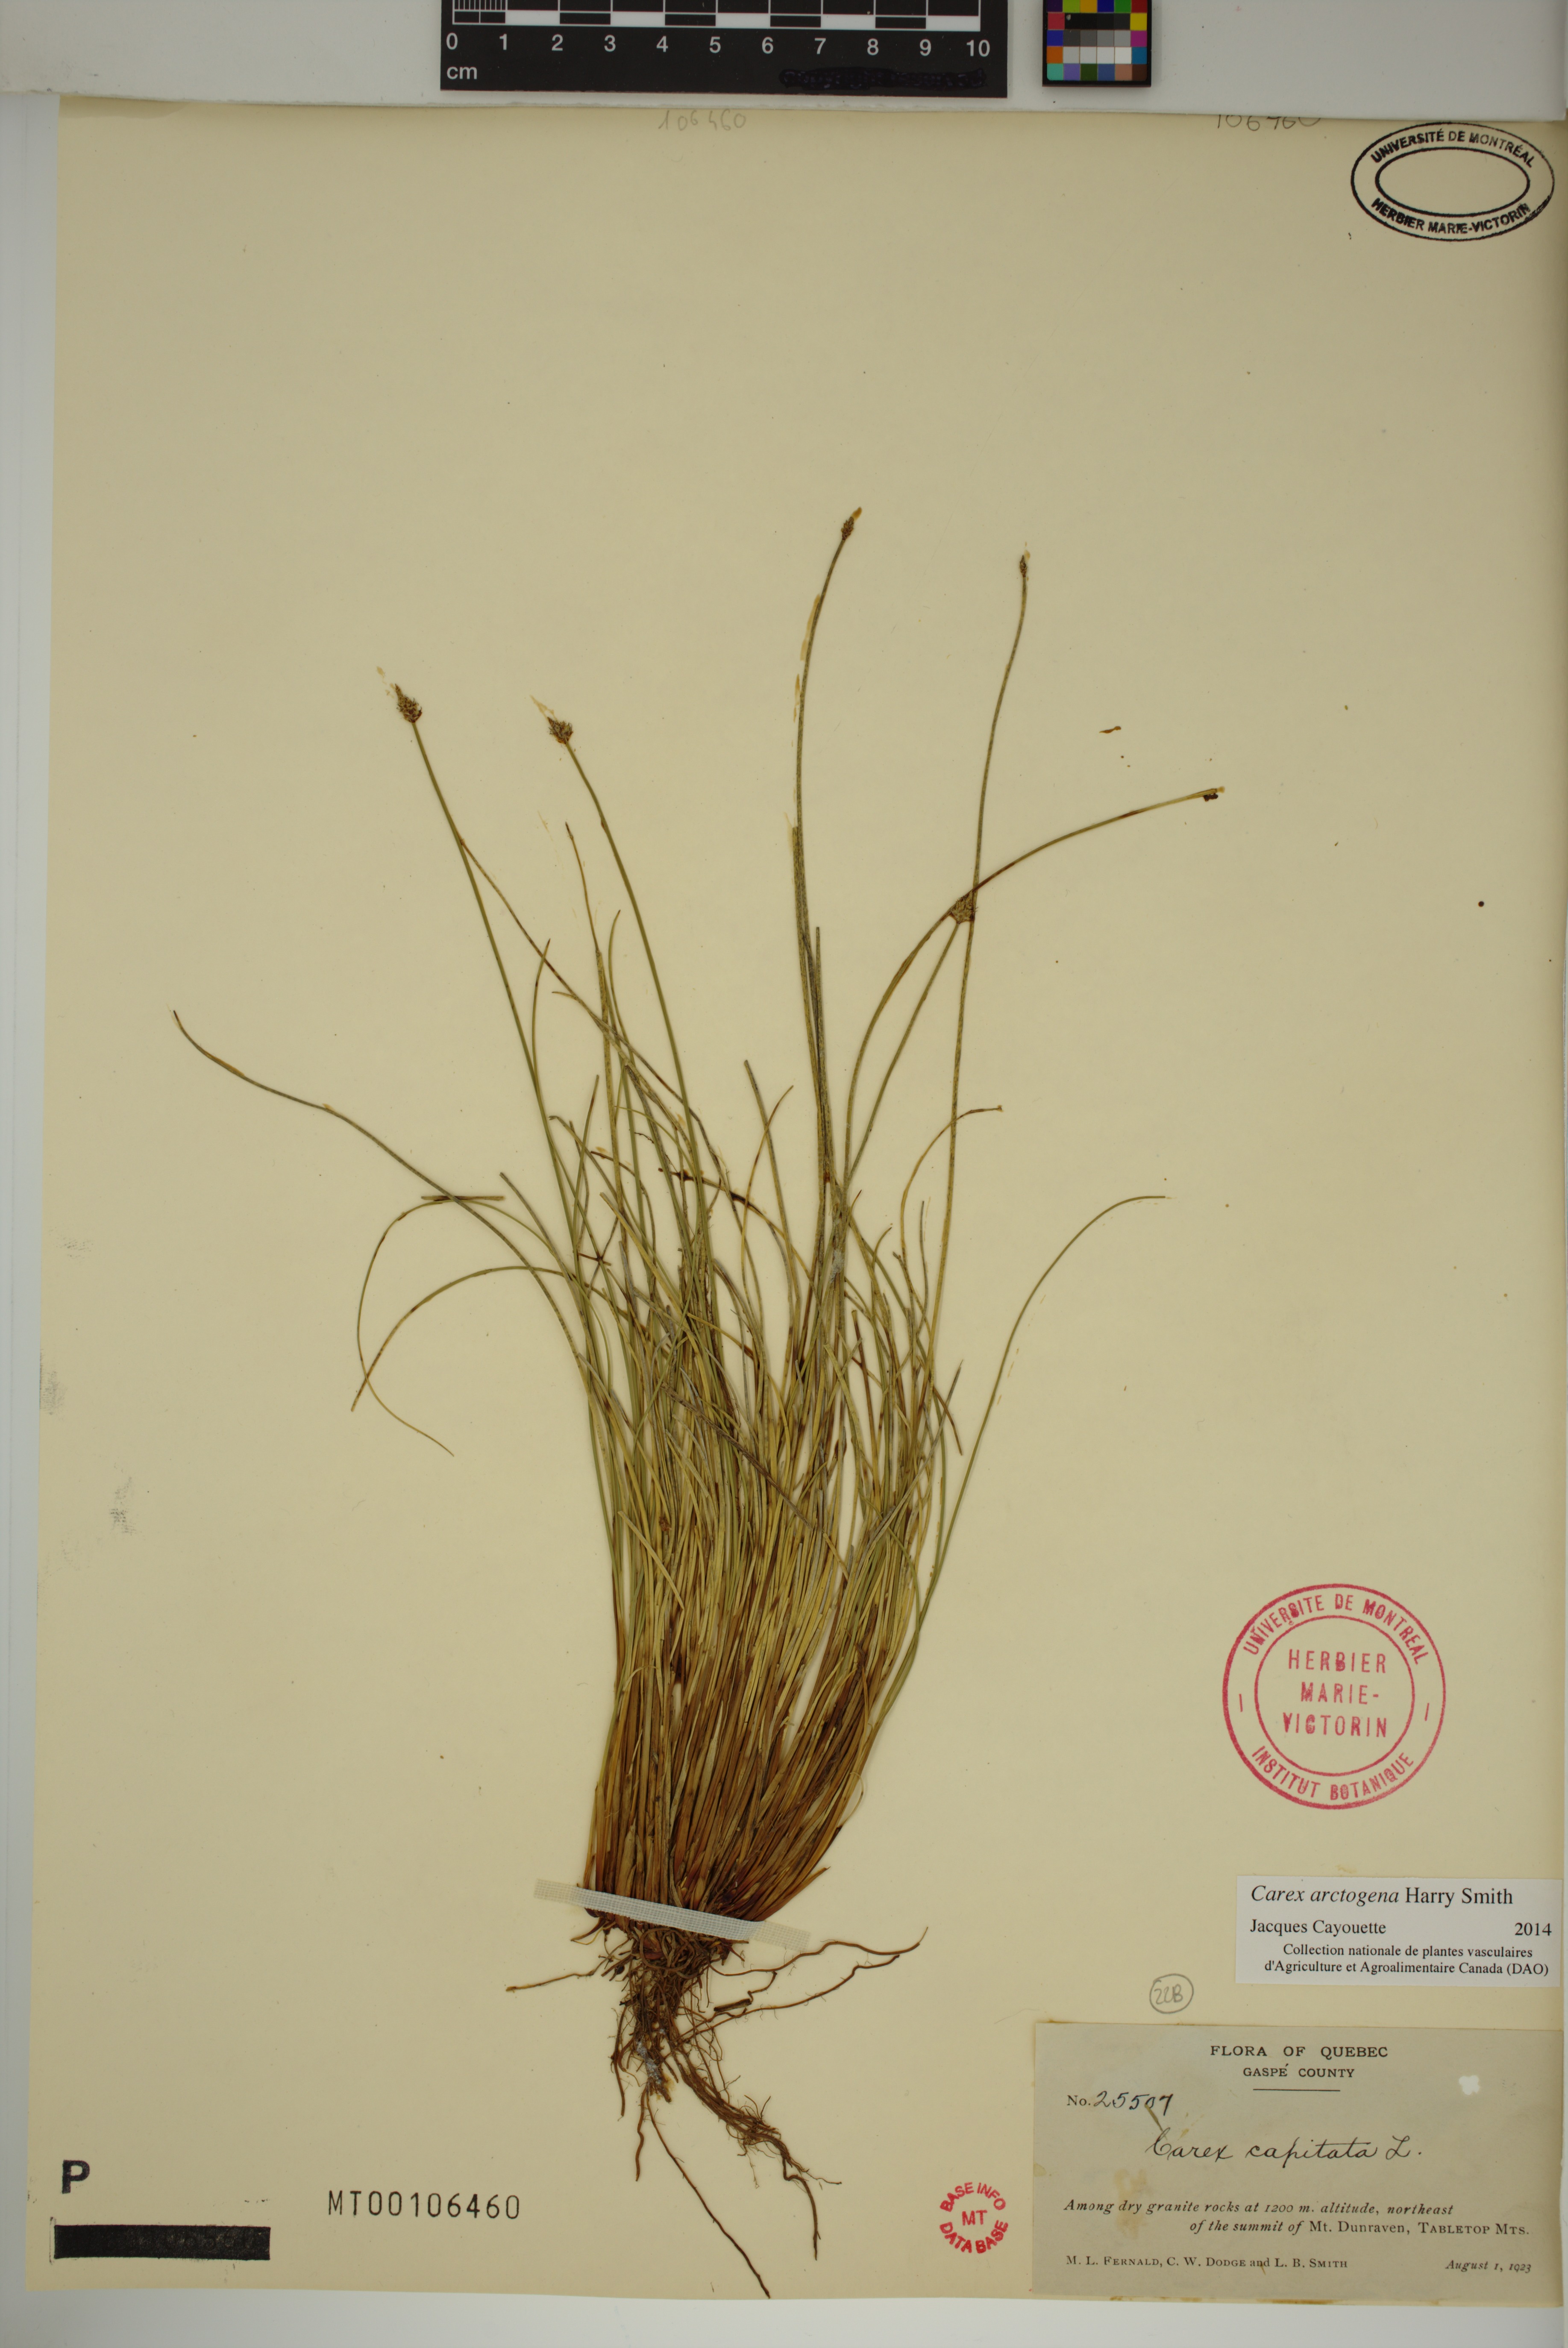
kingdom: Plantae
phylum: Tracheophyta
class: Liliopsida
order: Poales
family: Cyperaceae
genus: Carex
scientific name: Carex arctogena
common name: Black sedge
